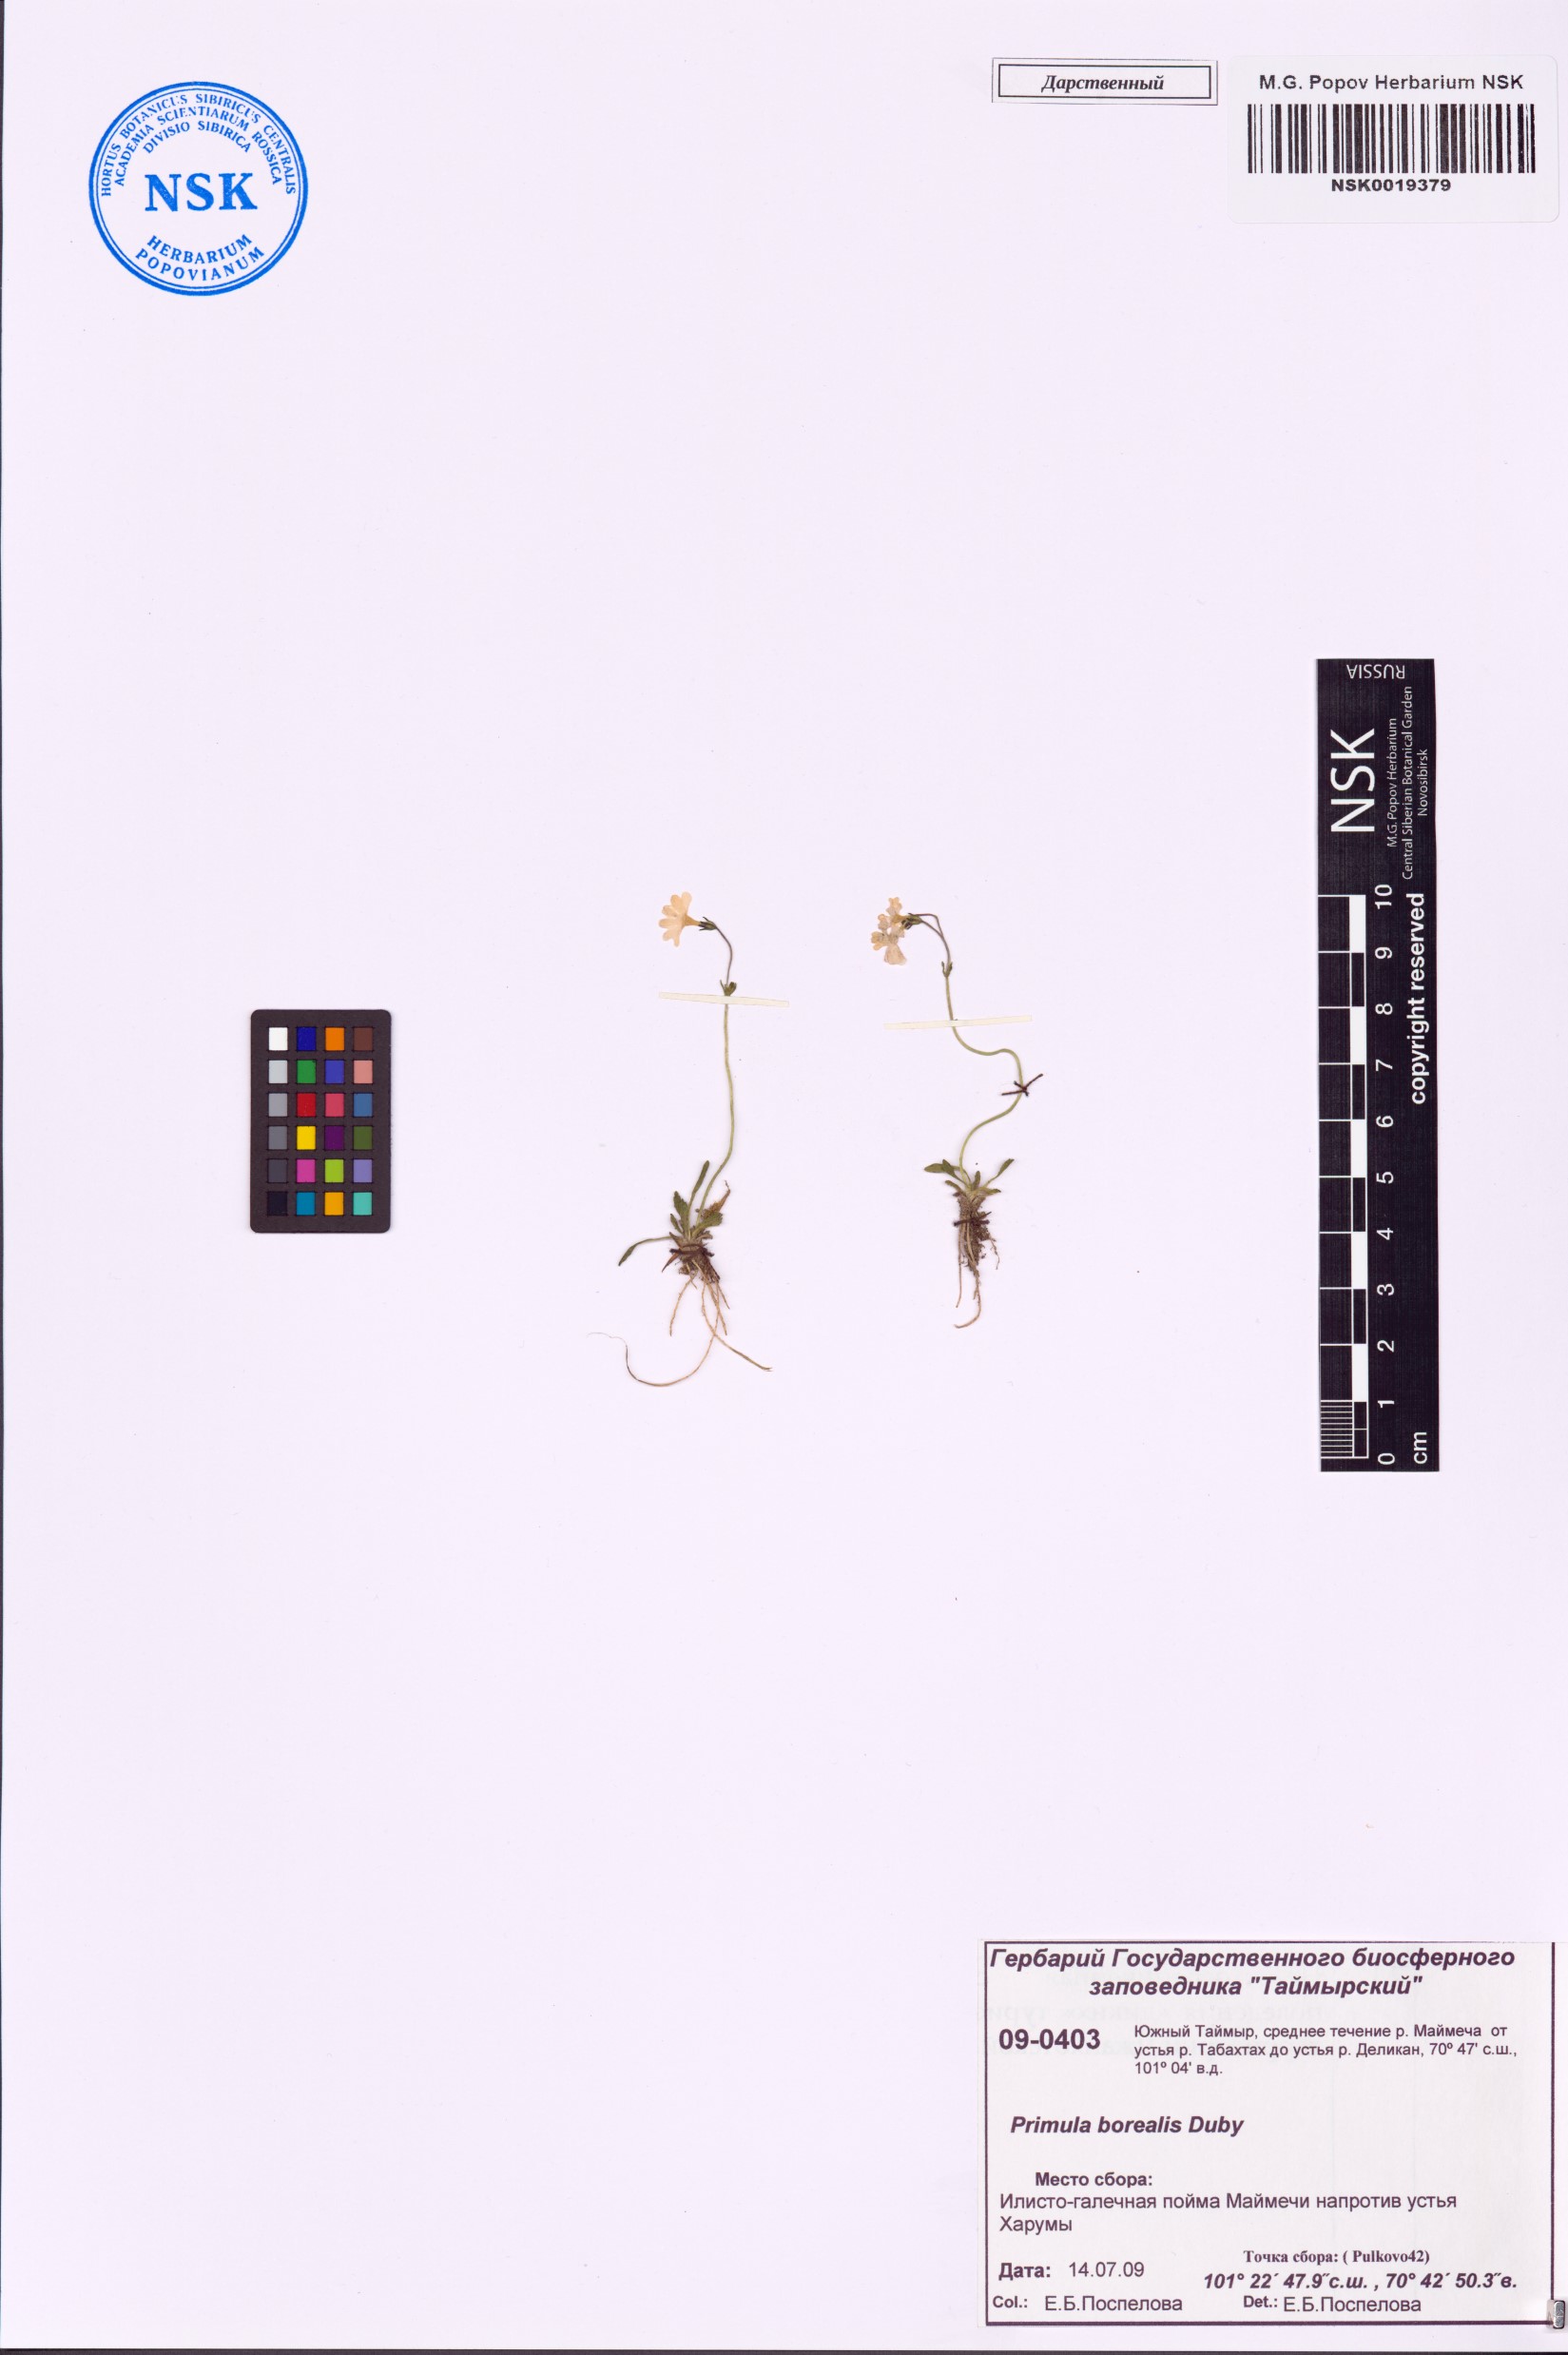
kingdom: Plantae
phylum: Tracheophyta
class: Magnoliopsida
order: Ericales
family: Primulaceae
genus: Primula
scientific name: Primula borealis
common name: Northern primrose
